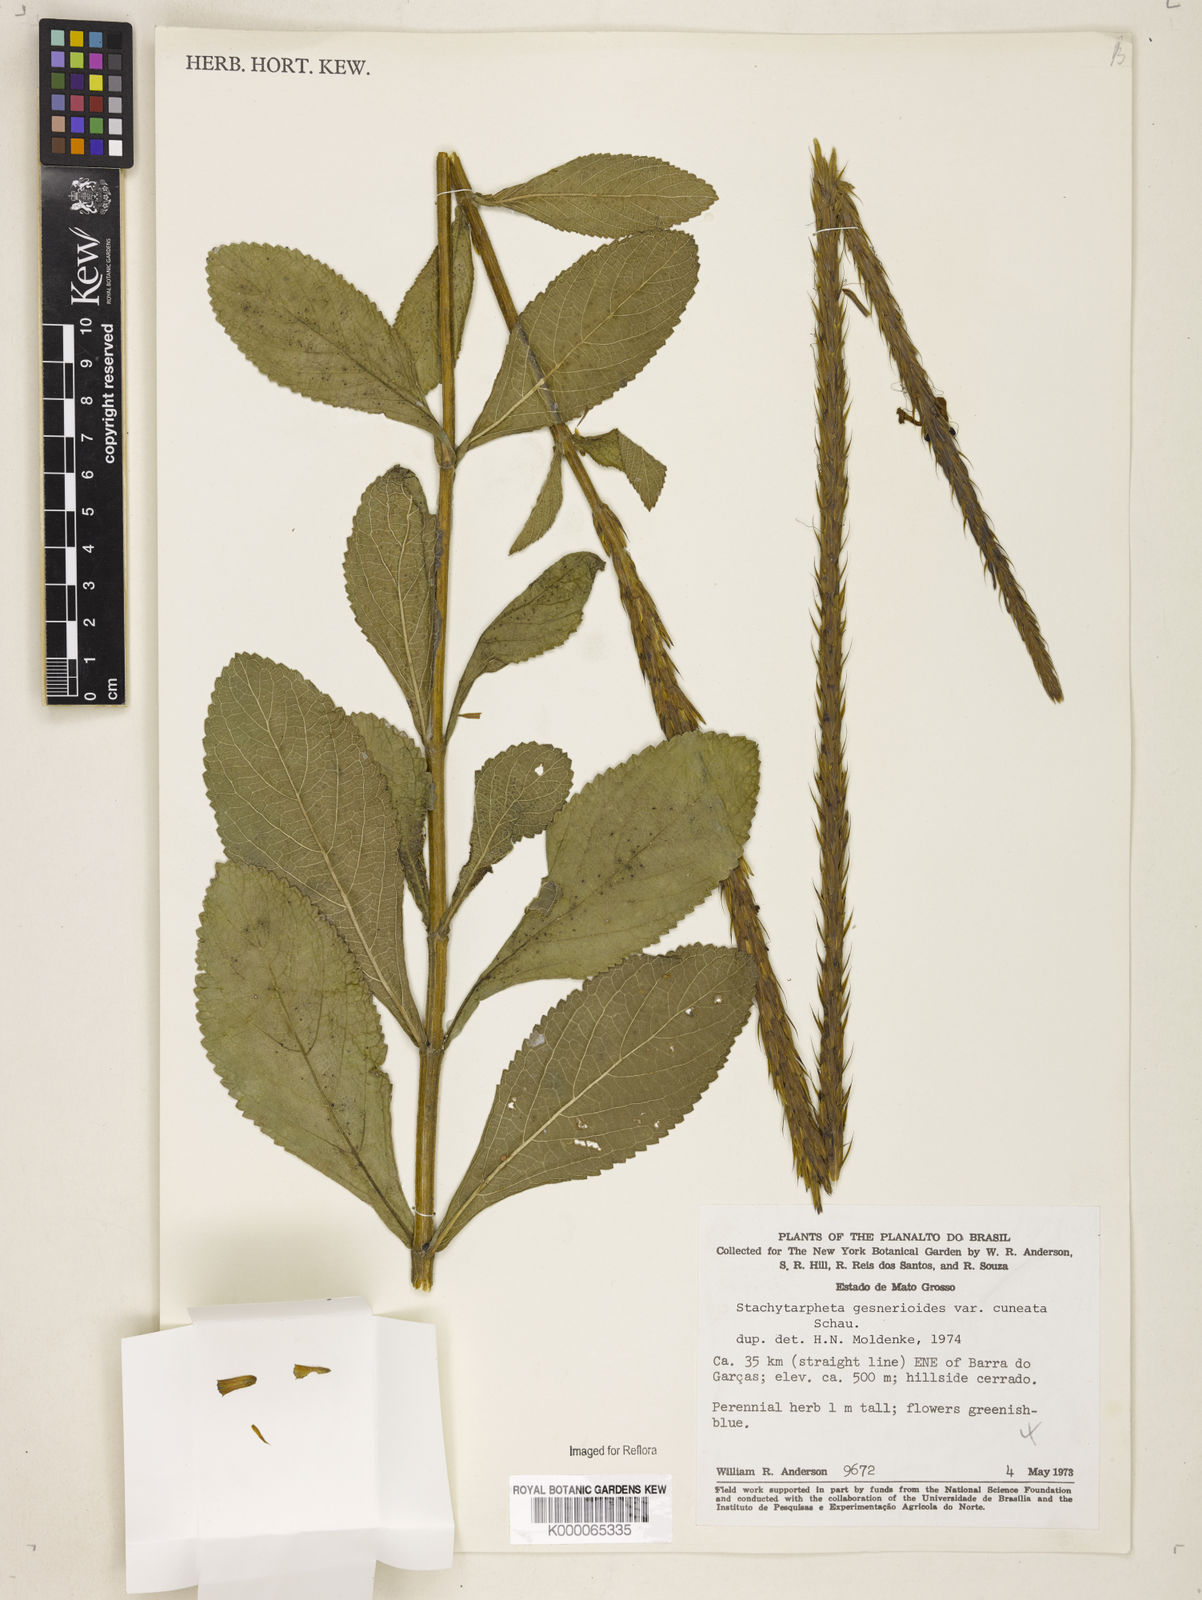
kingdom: Plantae
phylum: Tracheophyta
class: Magnoliopsida
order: Lamiales
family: Verbenaceae
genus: Stachytarpheta
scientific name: Stachytarpheta gesnerioides
